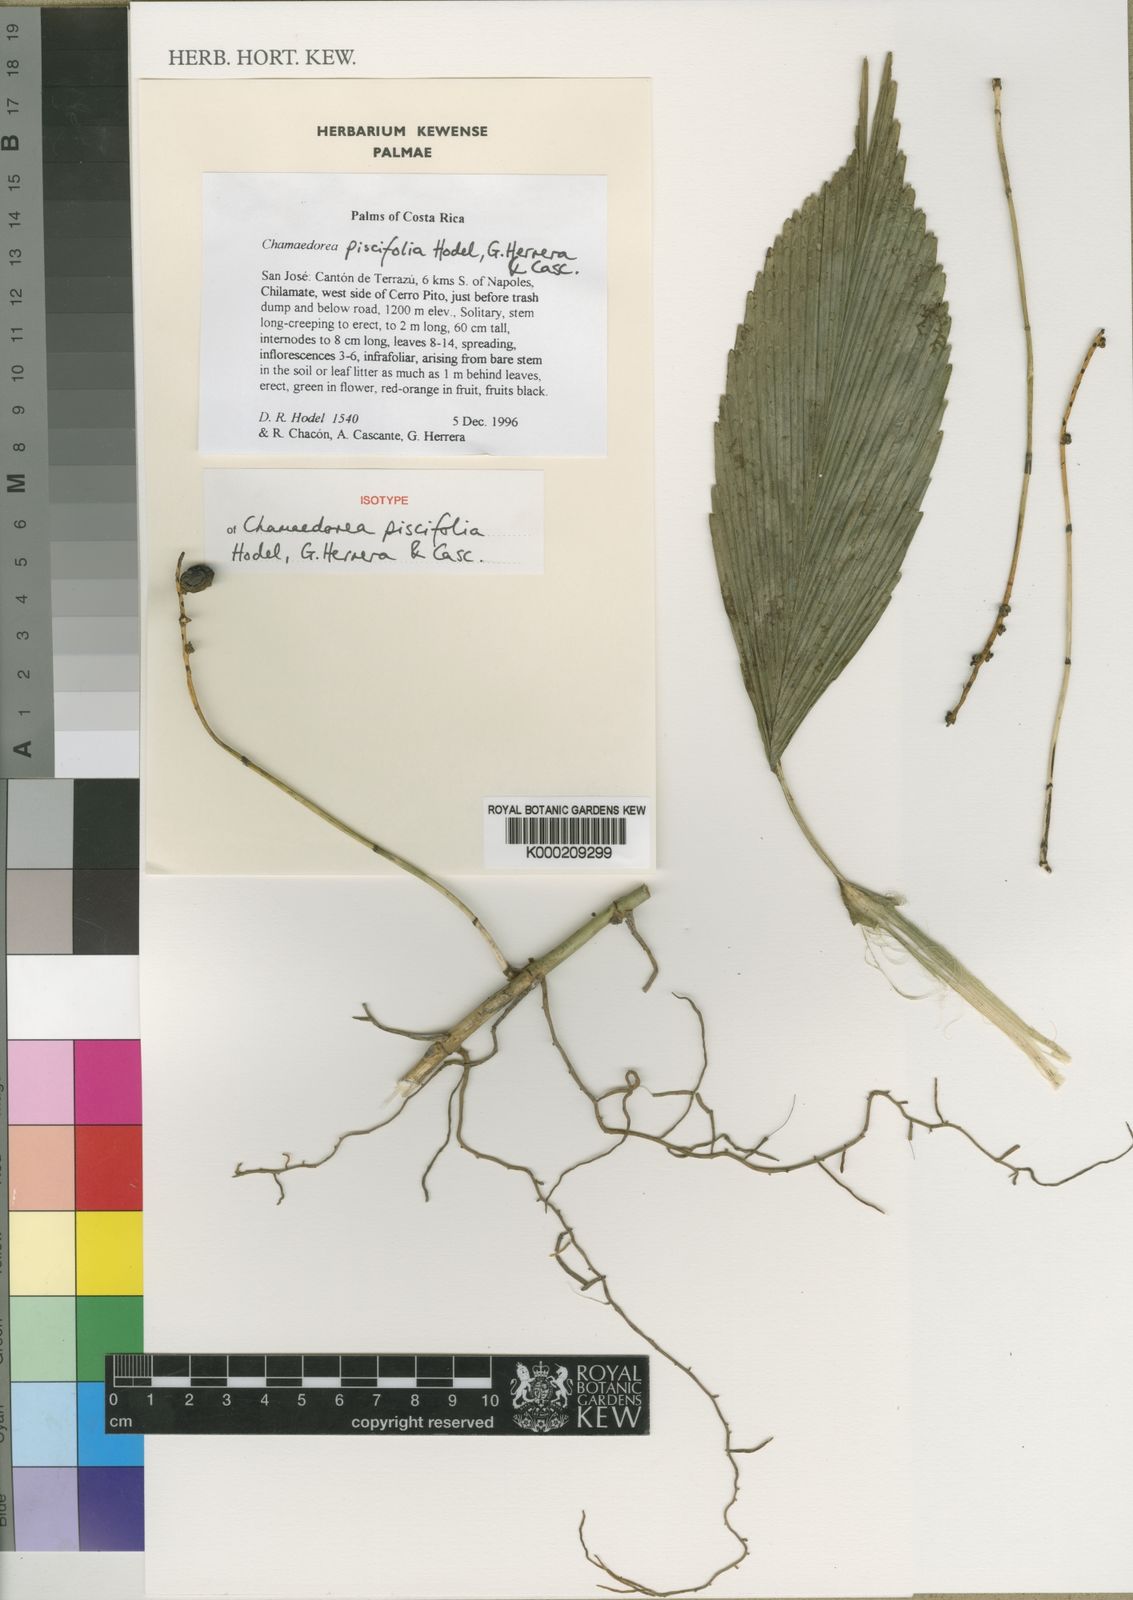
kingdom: Plantae
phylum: Tracheophyta
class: Liliopsida
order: Arecales
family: Arecaceae
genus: Chamaedorea
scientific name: Chamaedorea piscifolia
